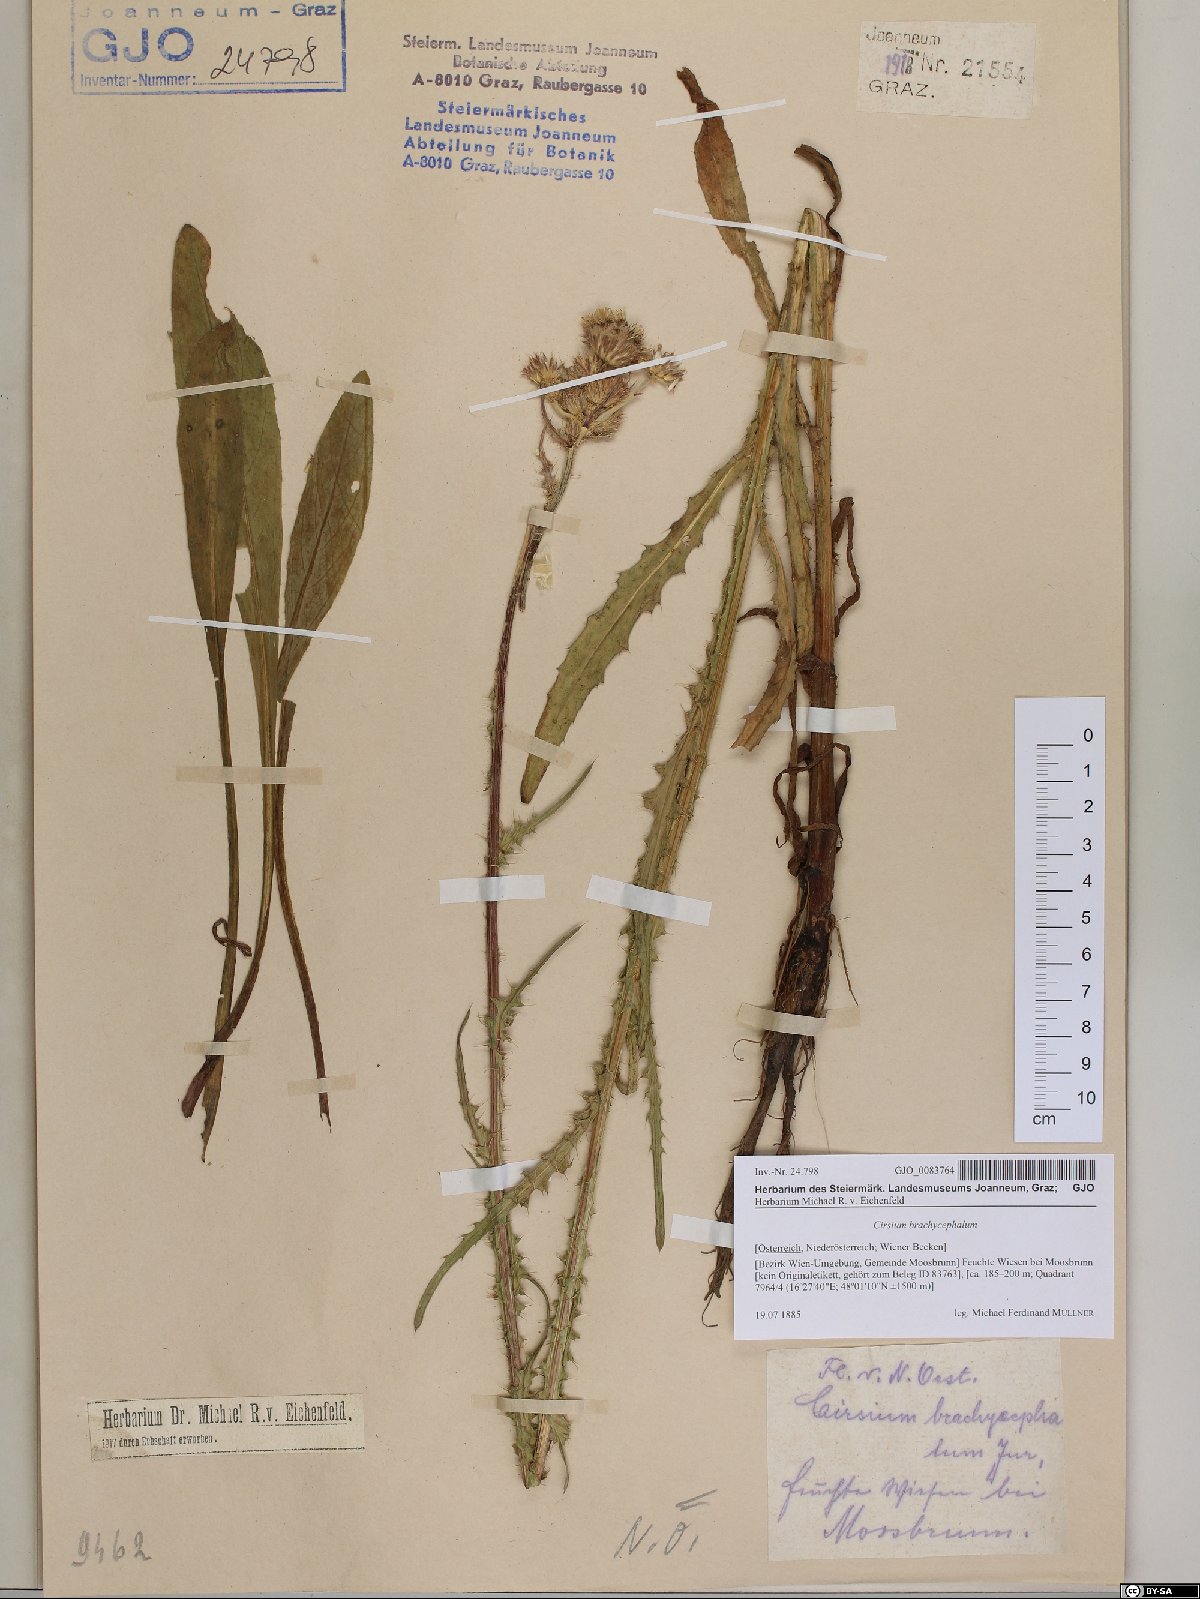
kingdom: Plantae
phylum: Tracheophyta
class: Magnoliopsida
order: Asterales
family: Asteraceae
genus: Cirsium
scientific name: Cirsium brachycephalum
